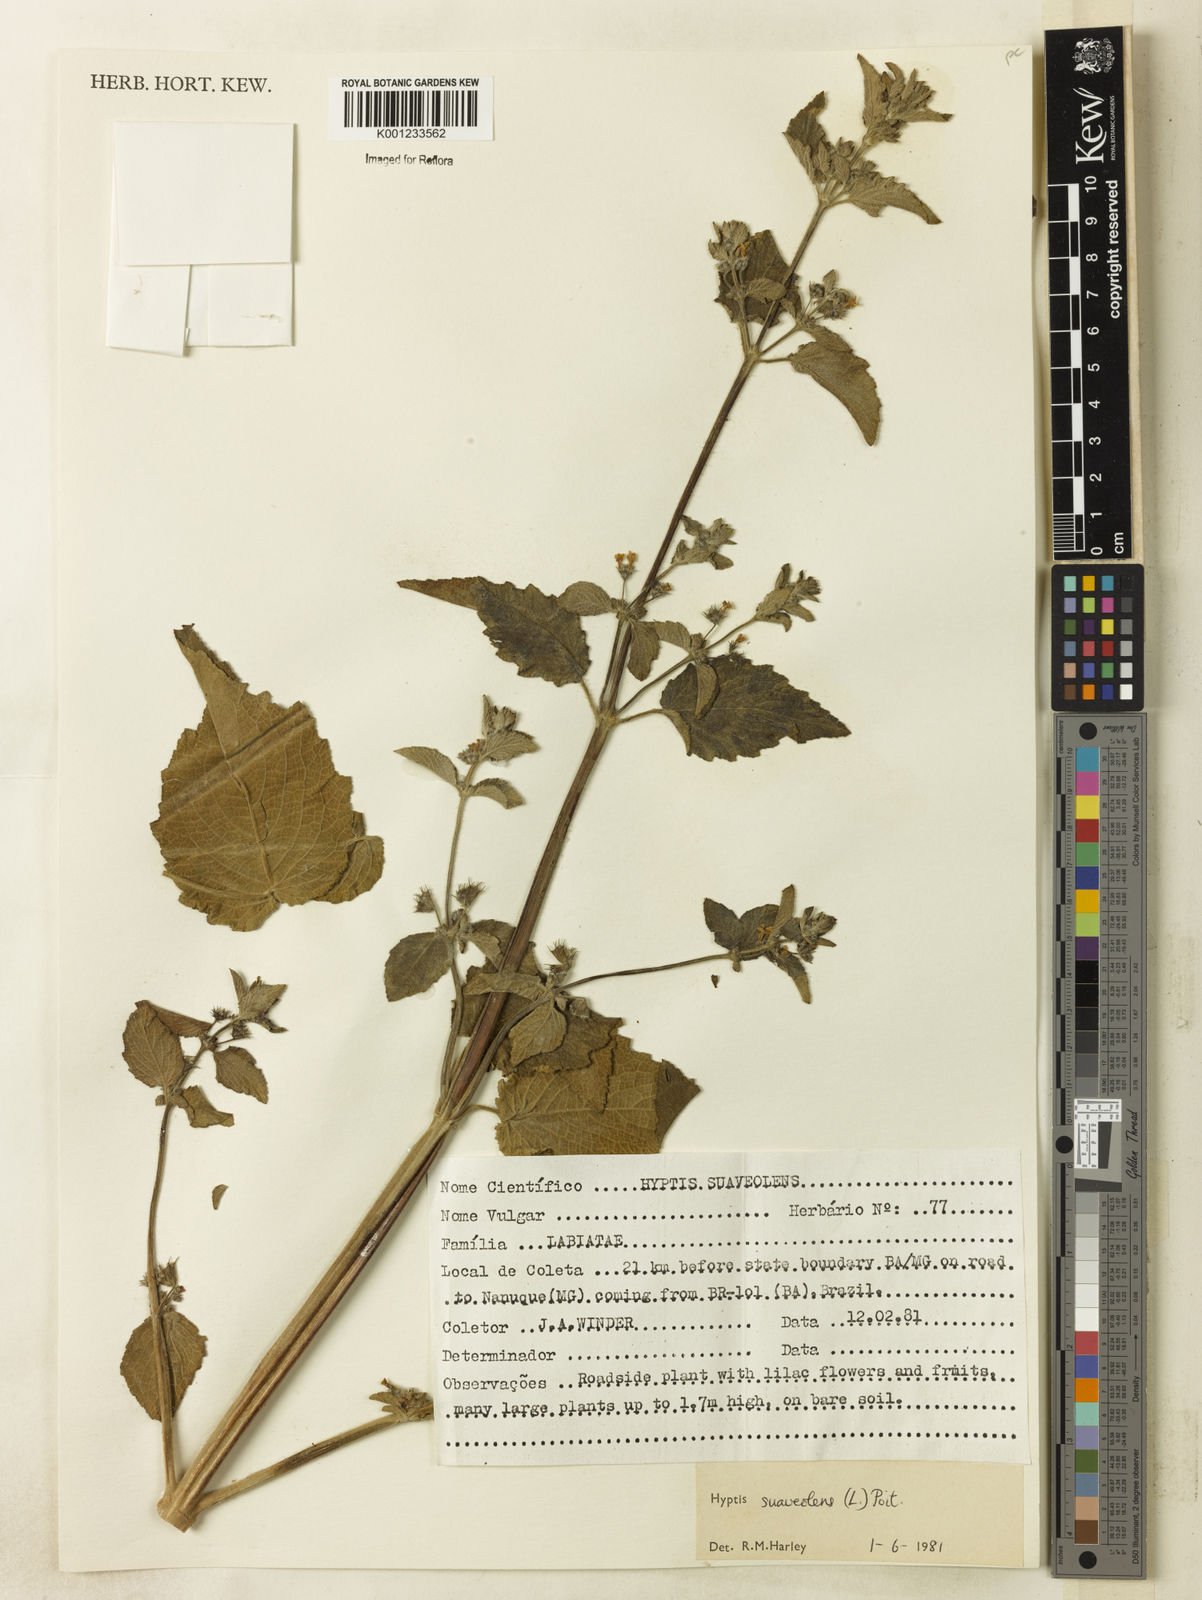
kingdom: Plantae
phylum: Tracheophyta
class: Magnoliopsida
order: Lamiales
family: Lamiaceae
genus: Mesosphaerum
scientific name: Mesosphaerum suaveolens
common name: Pignut
